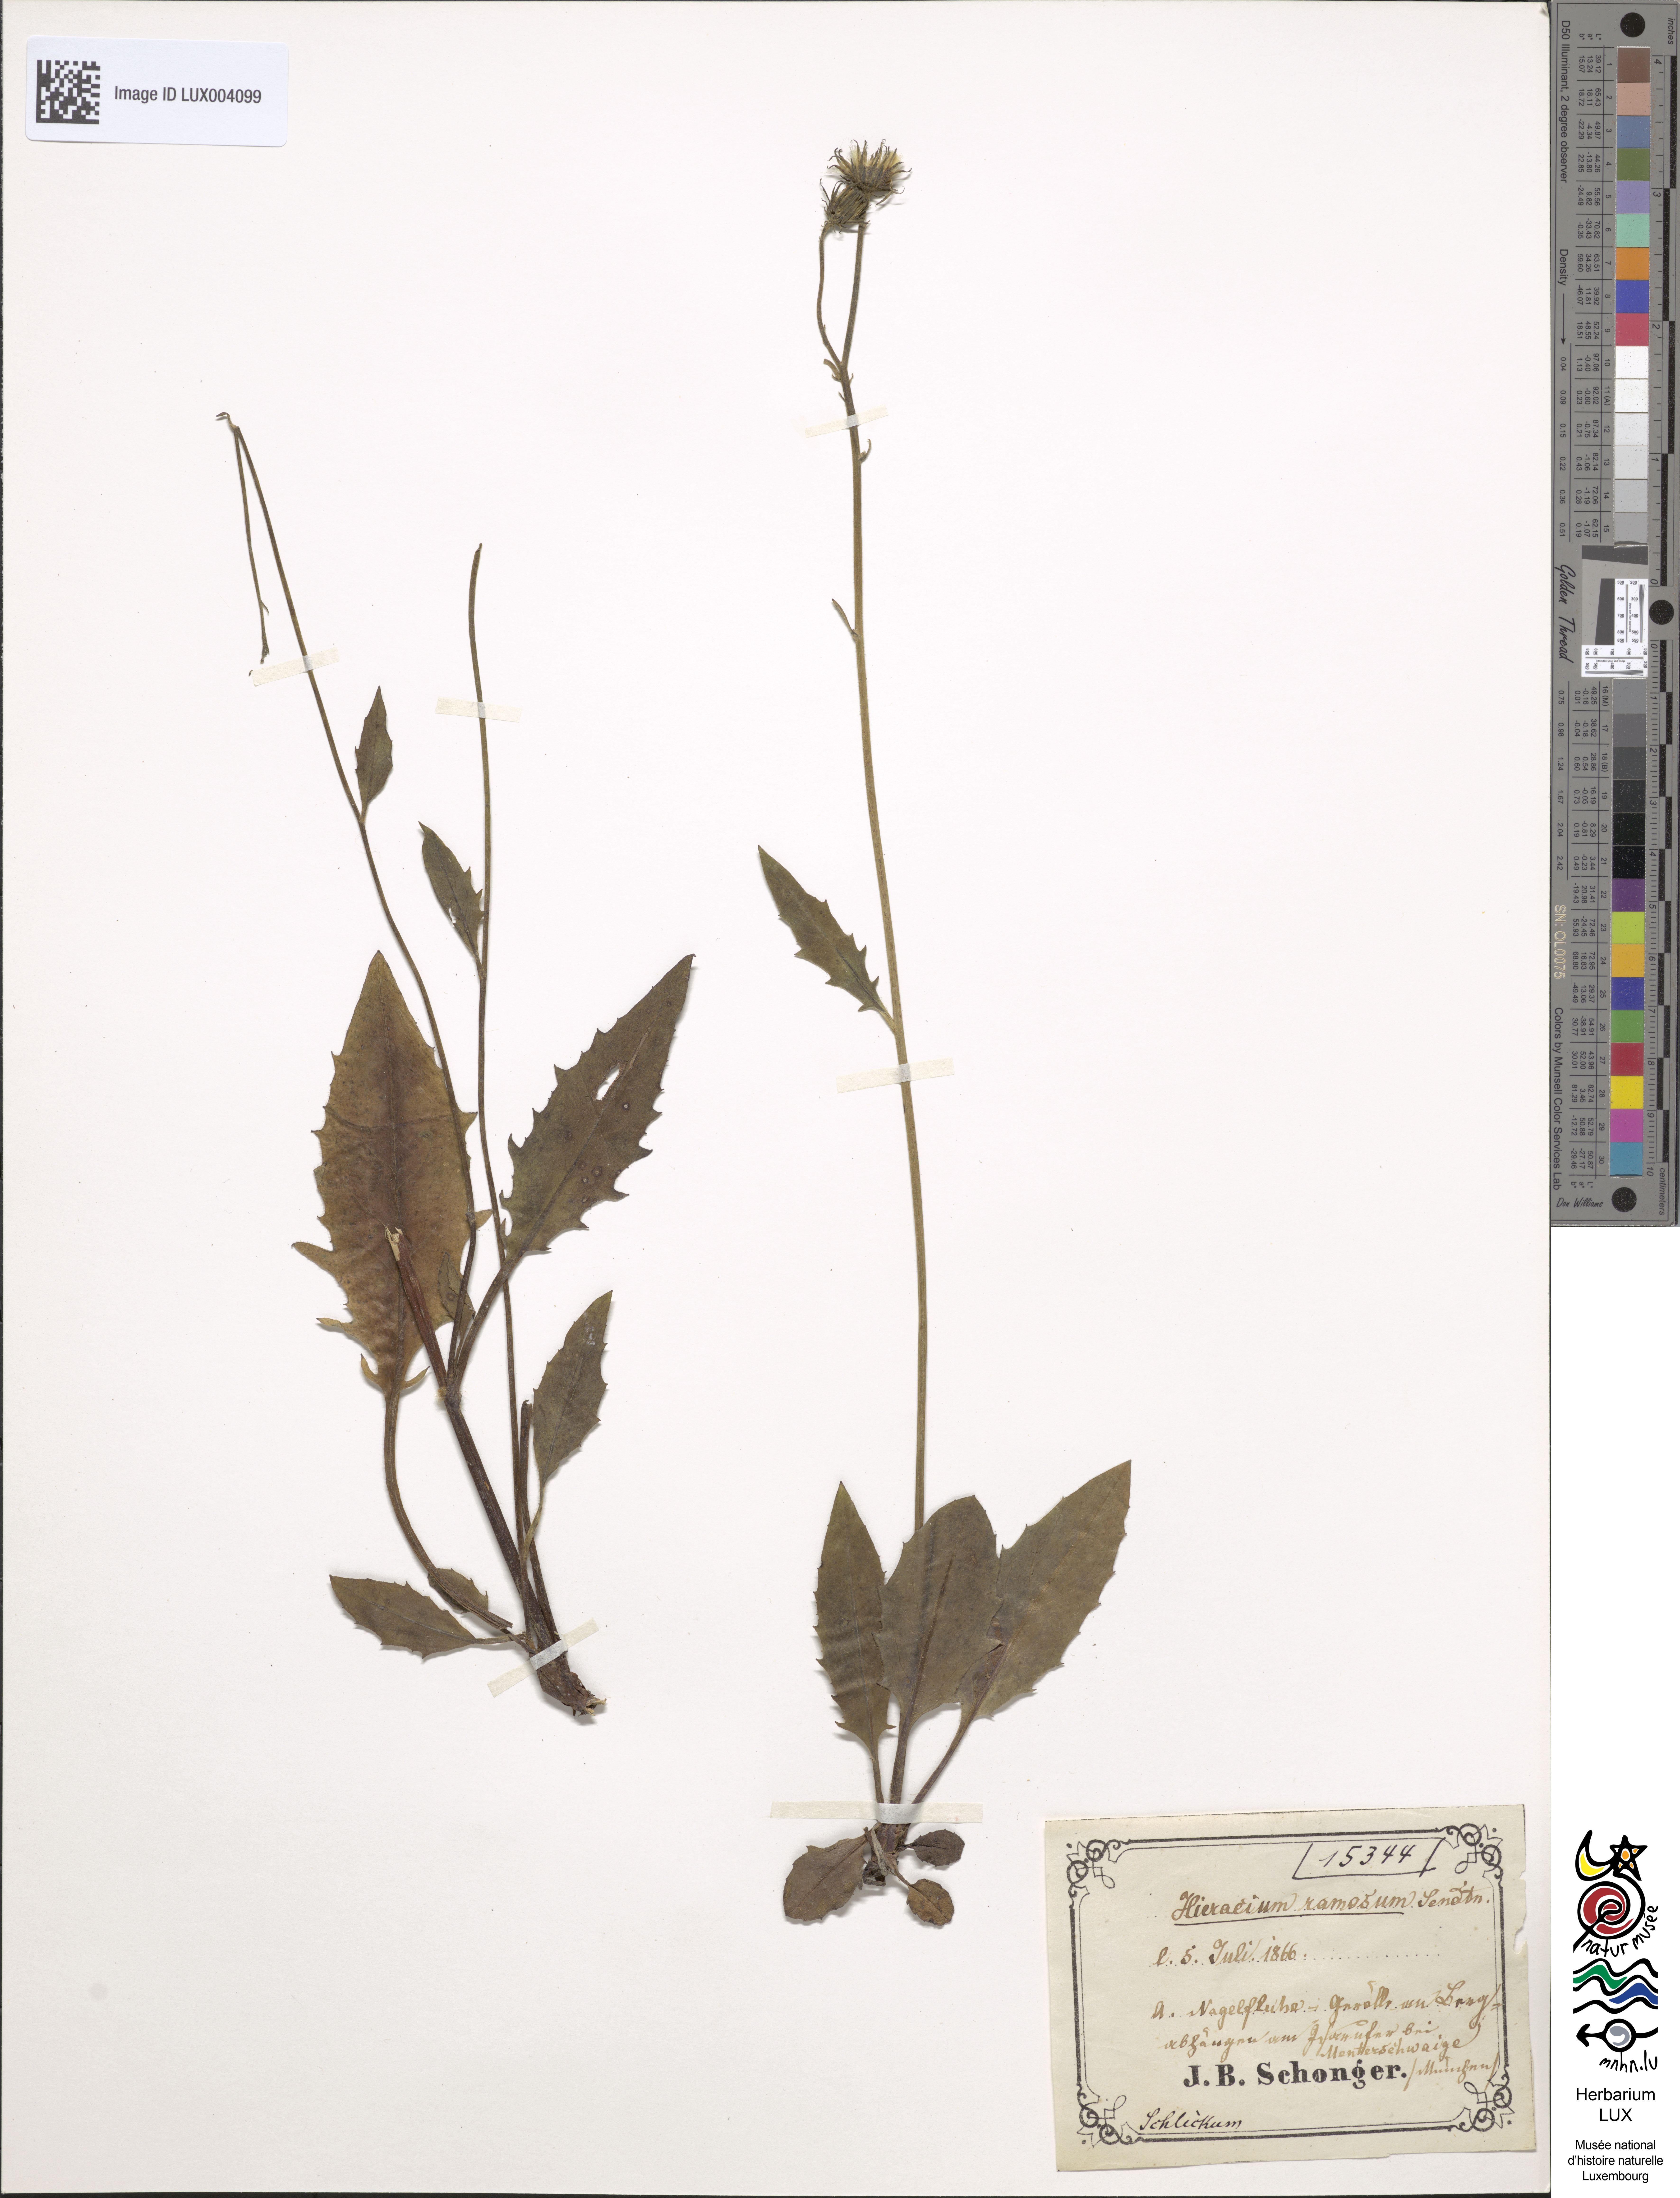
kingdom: Plantae
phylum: Tracheophyta
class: Magnoliopsida
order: Asterales
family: Asteraceae
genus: Hieracium
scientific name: Hieracium ramosum
